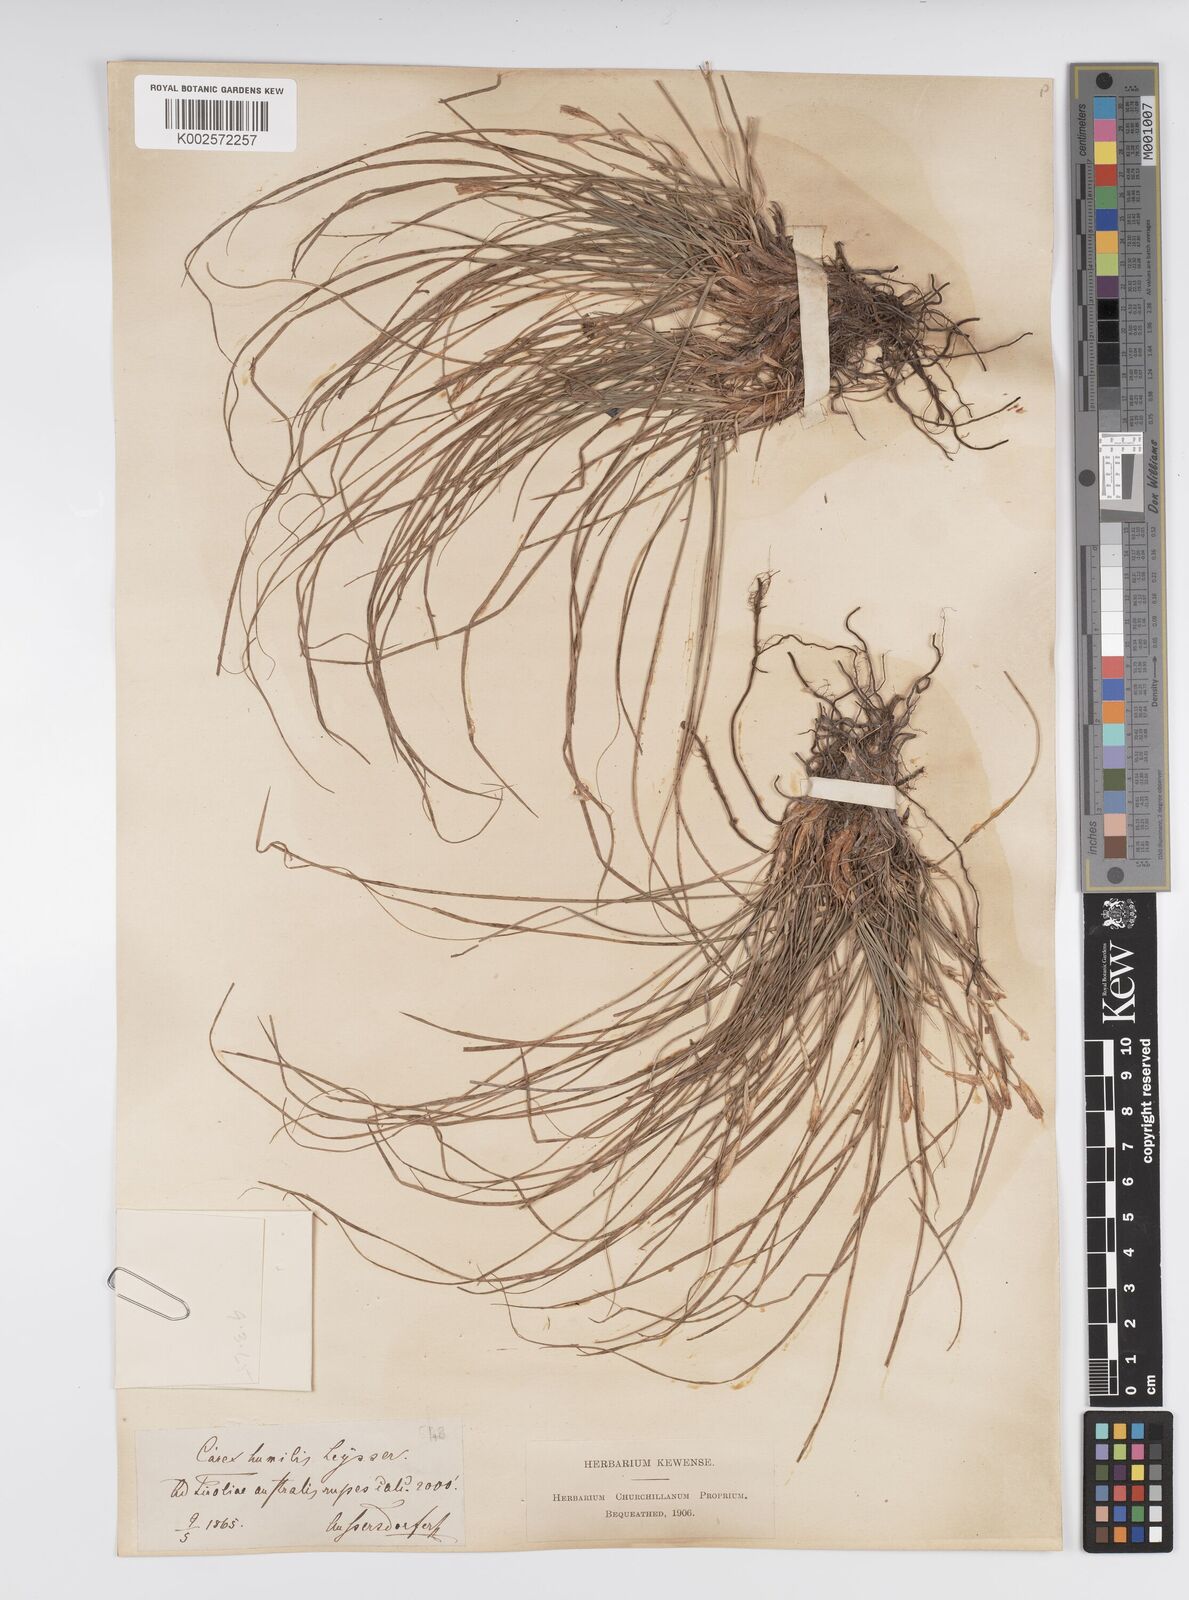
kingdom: Plantae
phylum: Tracheophyta
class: Liliopsida
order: Poales
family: Cyperaceae
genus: Carex
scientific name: Carex humilis
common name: Dwarf sedge
